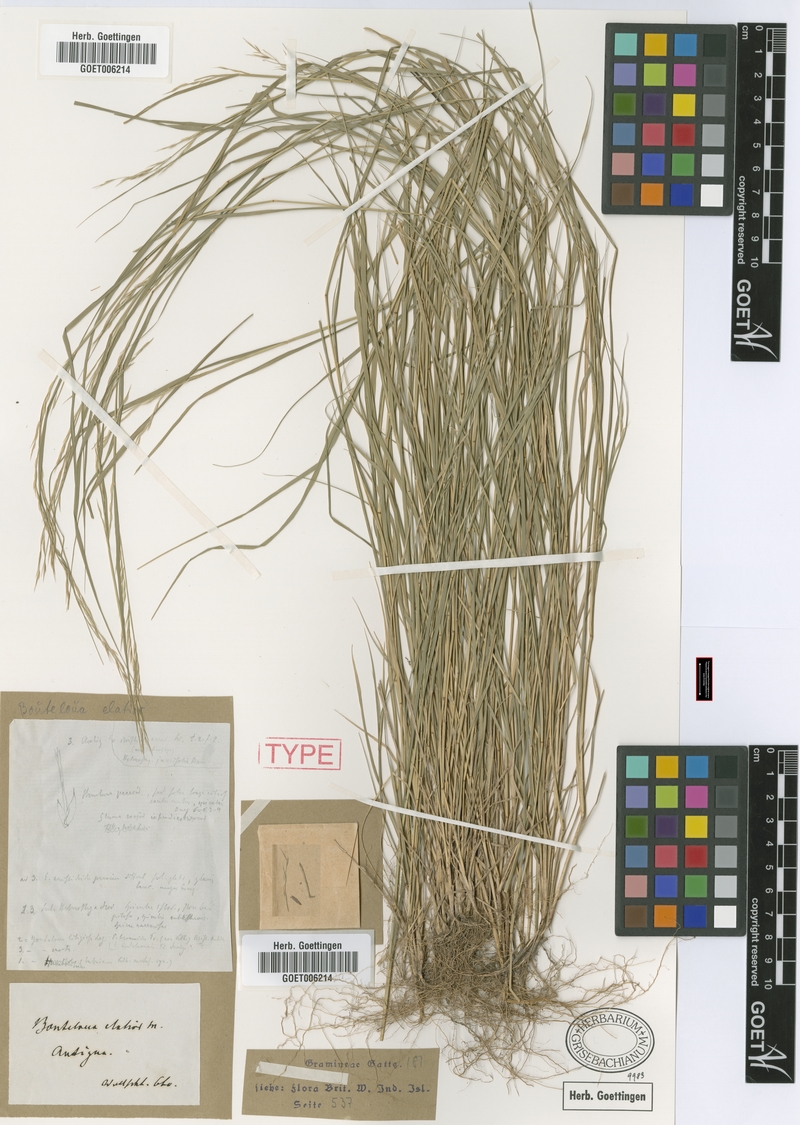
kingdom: Plantae
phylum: Tracheophyta
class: Liliopsida
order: Poales
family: Poaceae
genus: Bouteloua
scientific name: Bouteloua americana
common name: Mule grass
